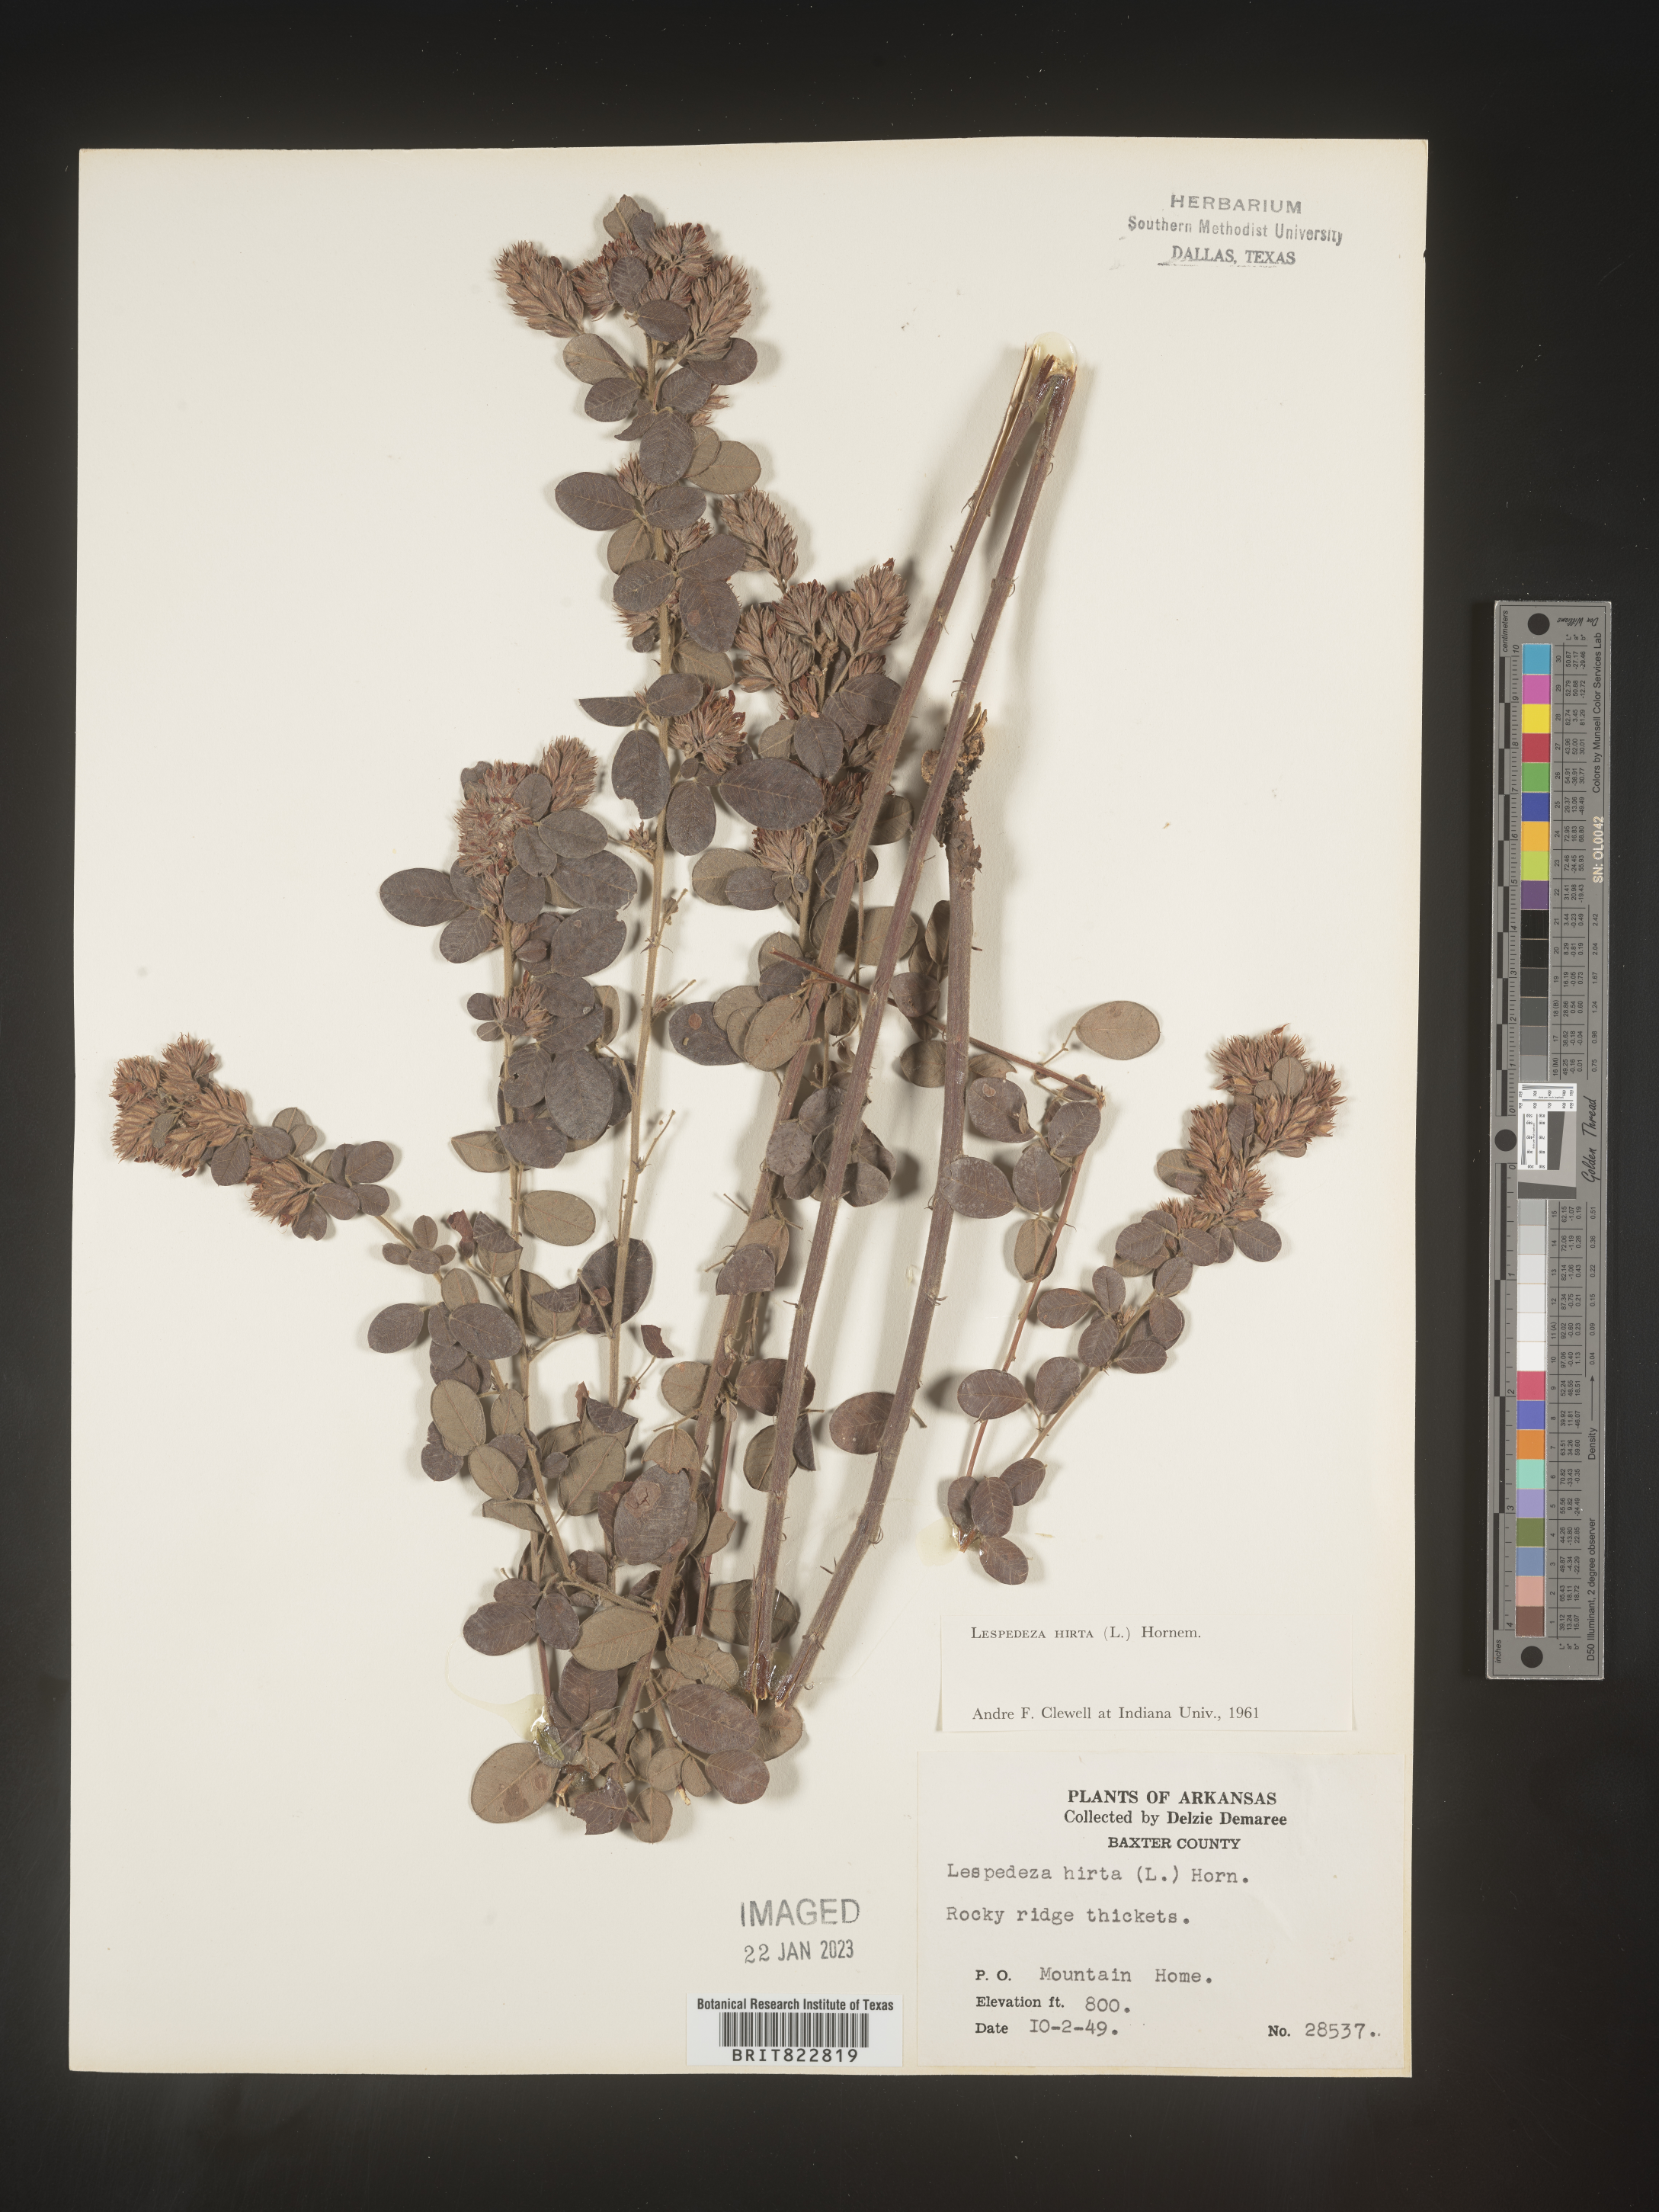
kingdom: Plantae
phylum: Tracheophyta
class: Magnoliopsida
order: Fabales
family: Fabaceae
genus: Lespedeza
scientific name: Lespedeza hirta
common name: Hairy lespedeza
